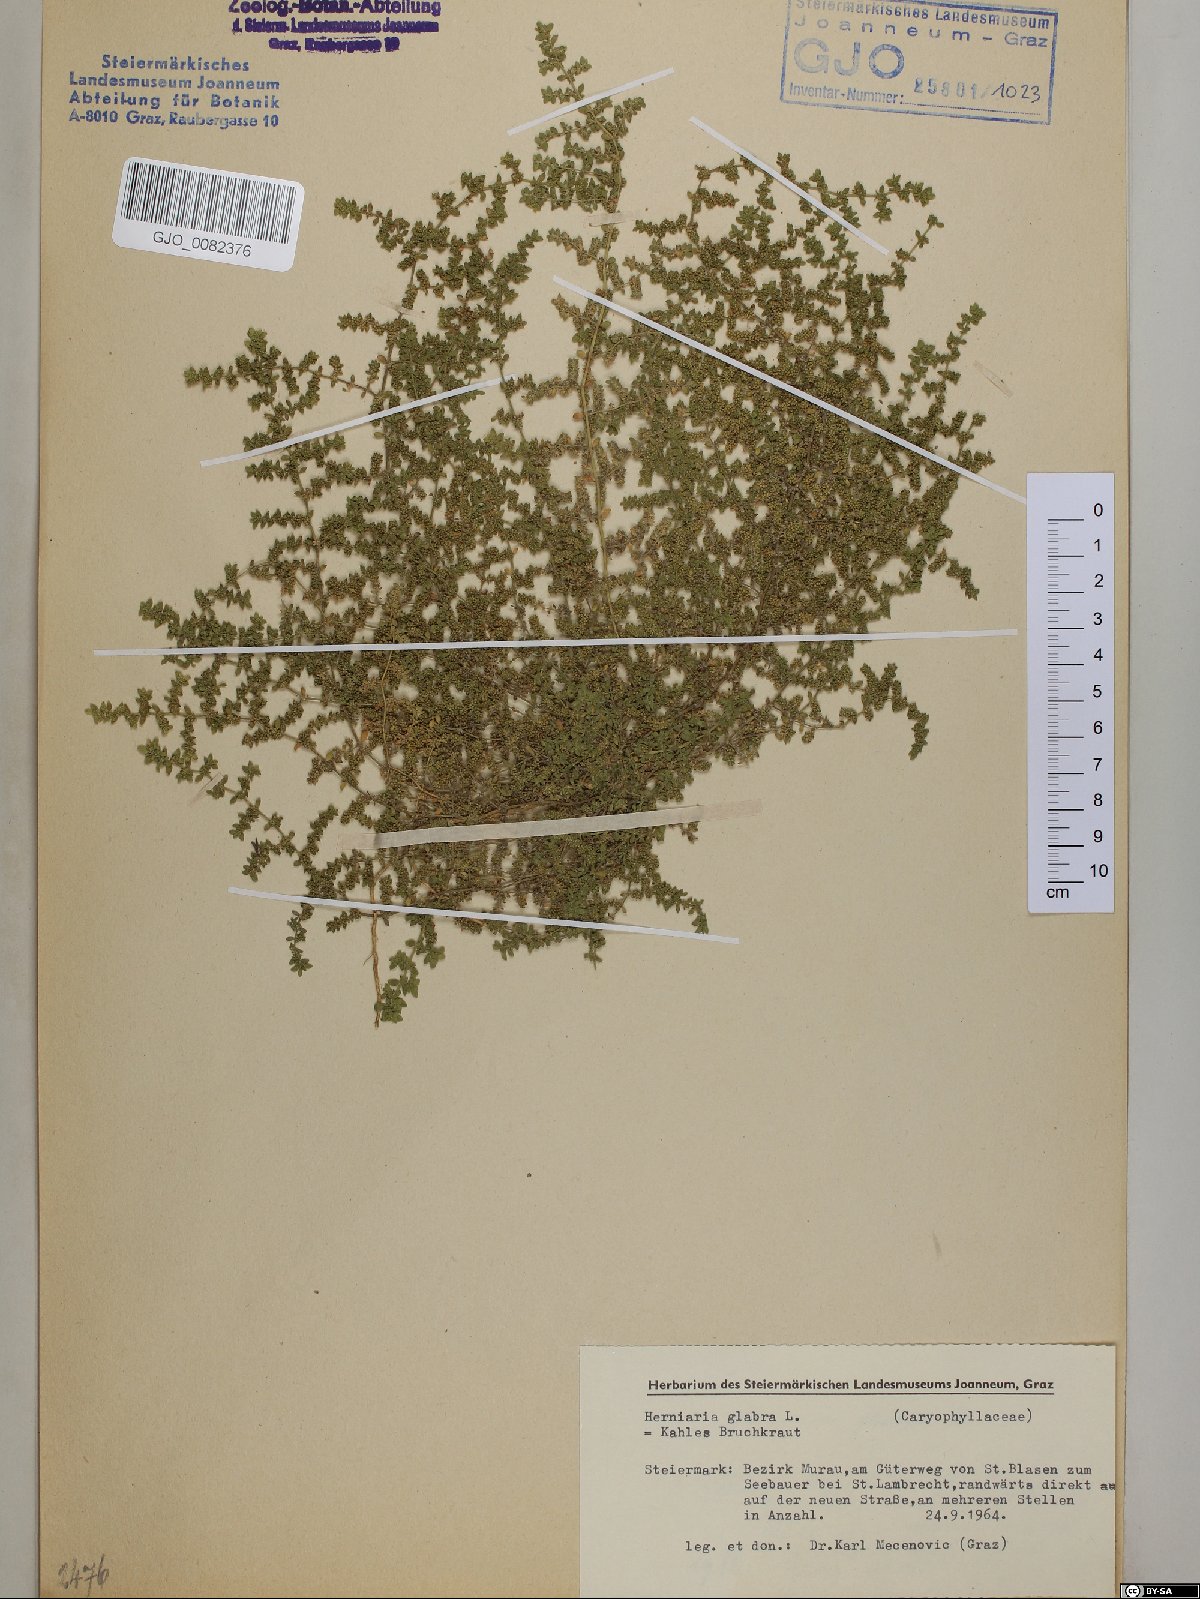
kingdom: Plantae
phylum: Tracheophyta
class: Magnoliopsida
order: Caryophyllales
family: Caryophyllaceae
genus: Herniaria
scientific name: Herniaria glabra
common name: Smooth rupturewort
